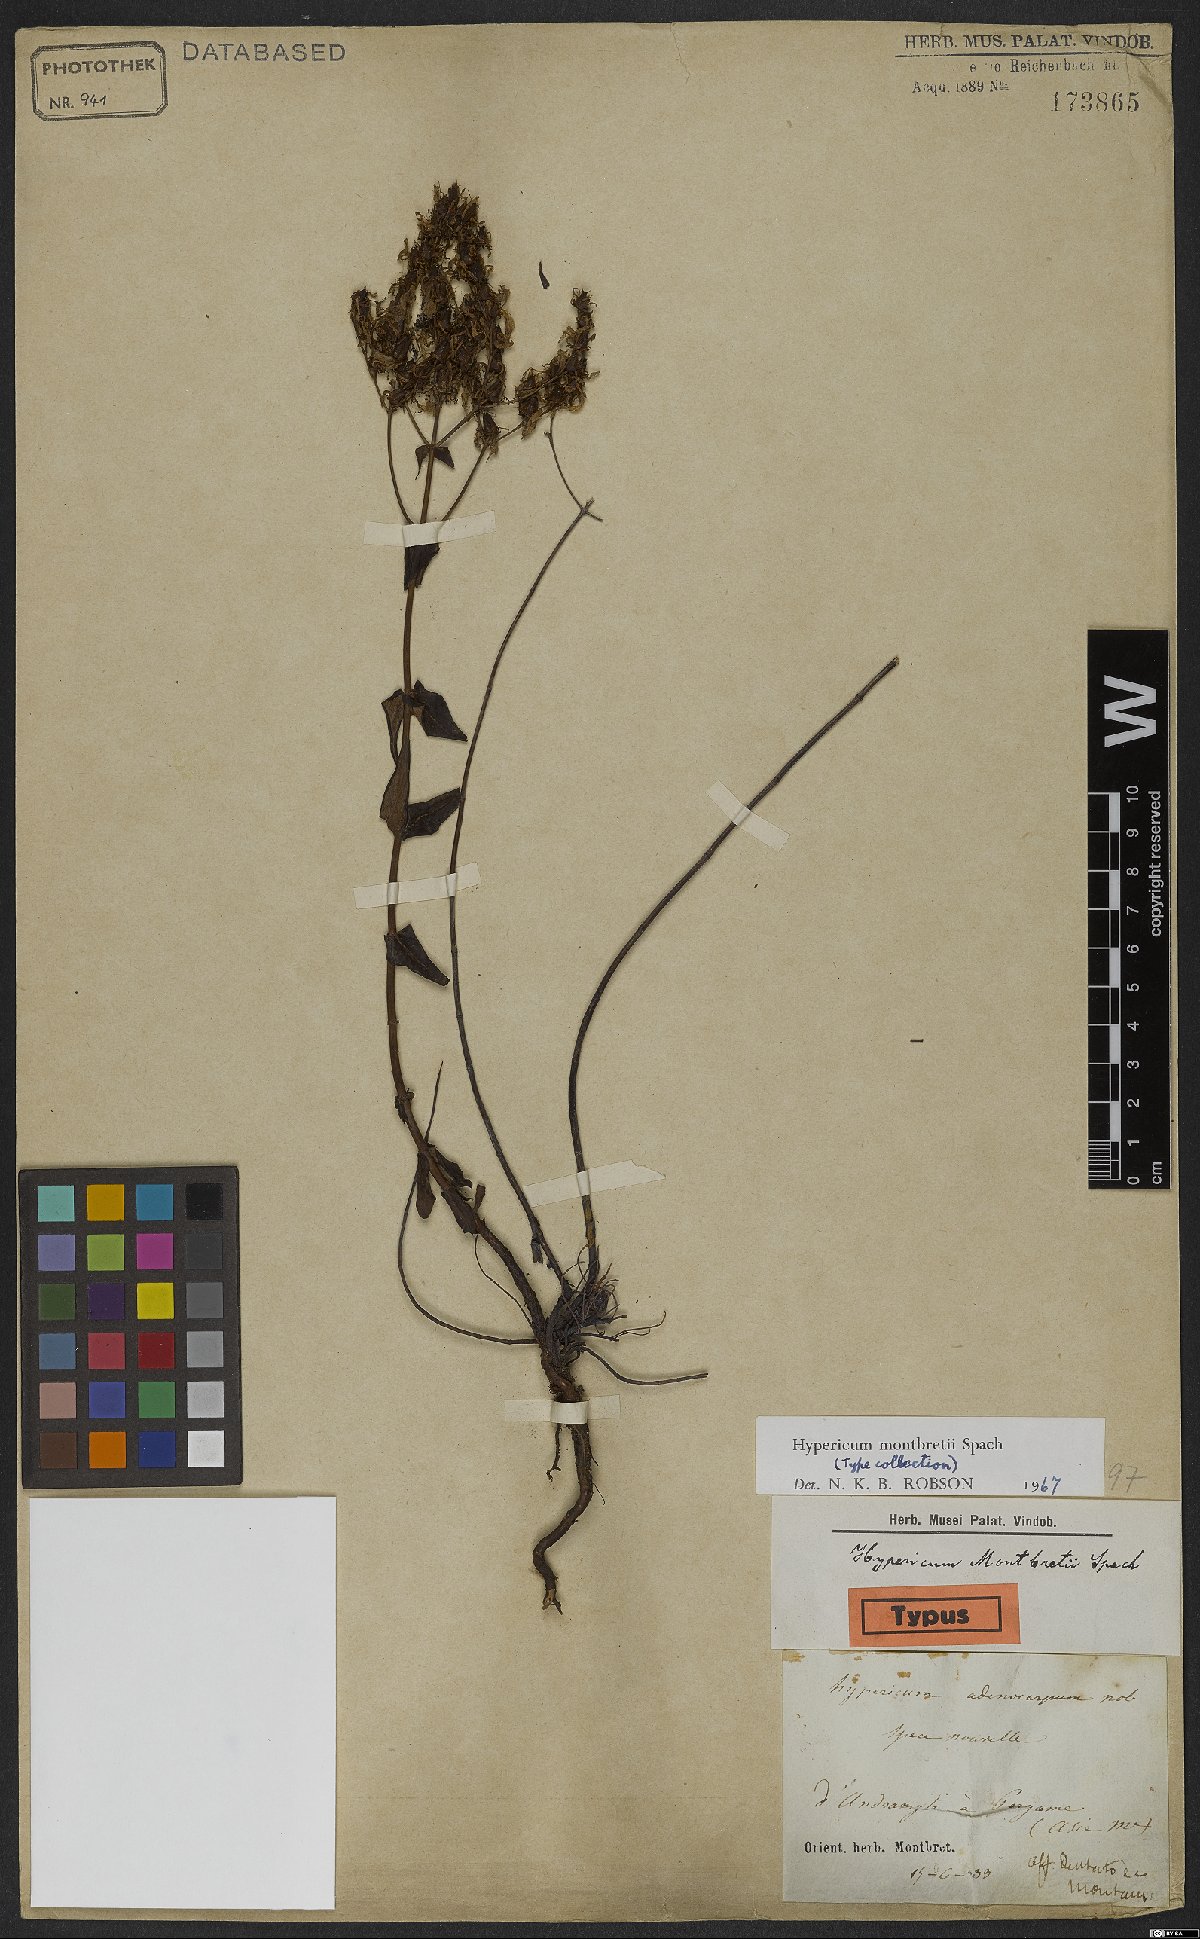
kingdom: Plantae
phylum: Tracheophyta
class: Magnoliopsida
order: Malpighiales
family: Hypericaceae
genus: Hypericum
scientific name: Hypericum montbretii
